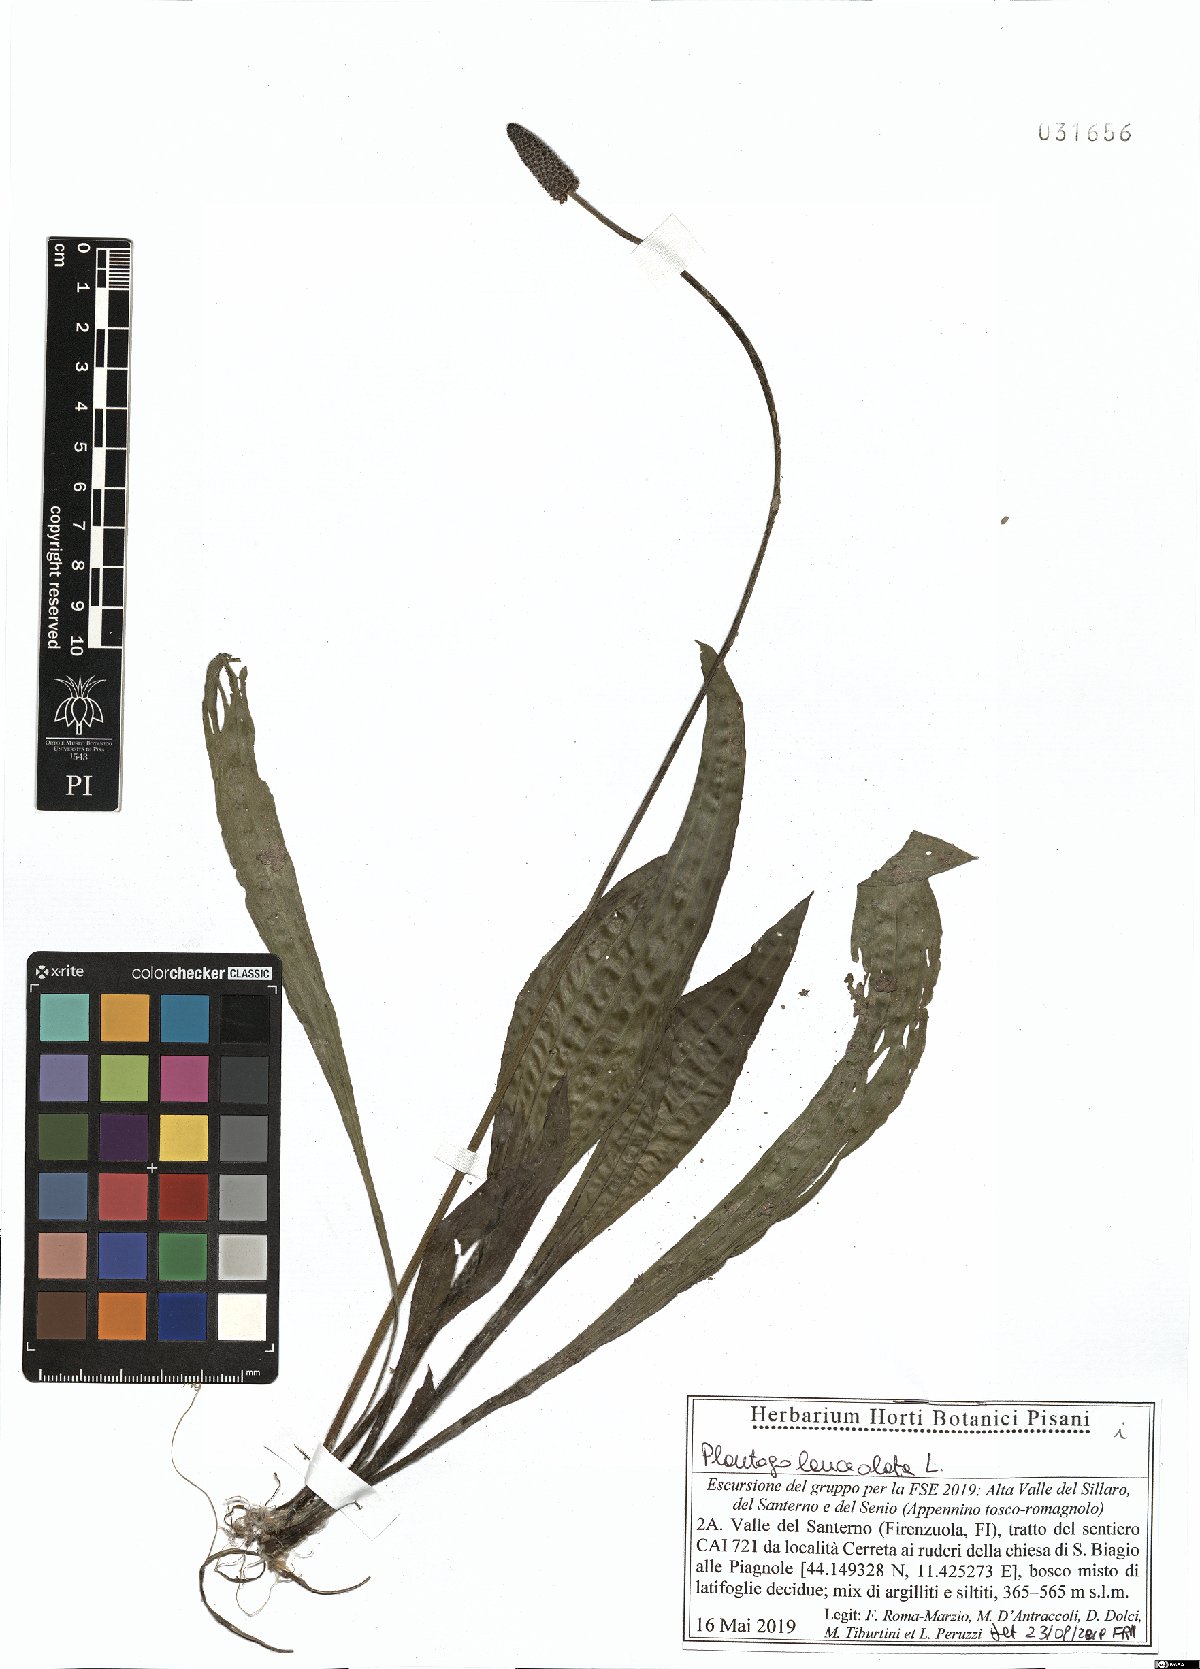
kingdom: Plantae
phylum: Tracheophyta
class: Magnoliopsida
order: Lamiales
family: Plantaginaceae
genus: Plantago
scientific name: Plantago lanceolata
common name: Ribwort plantain
